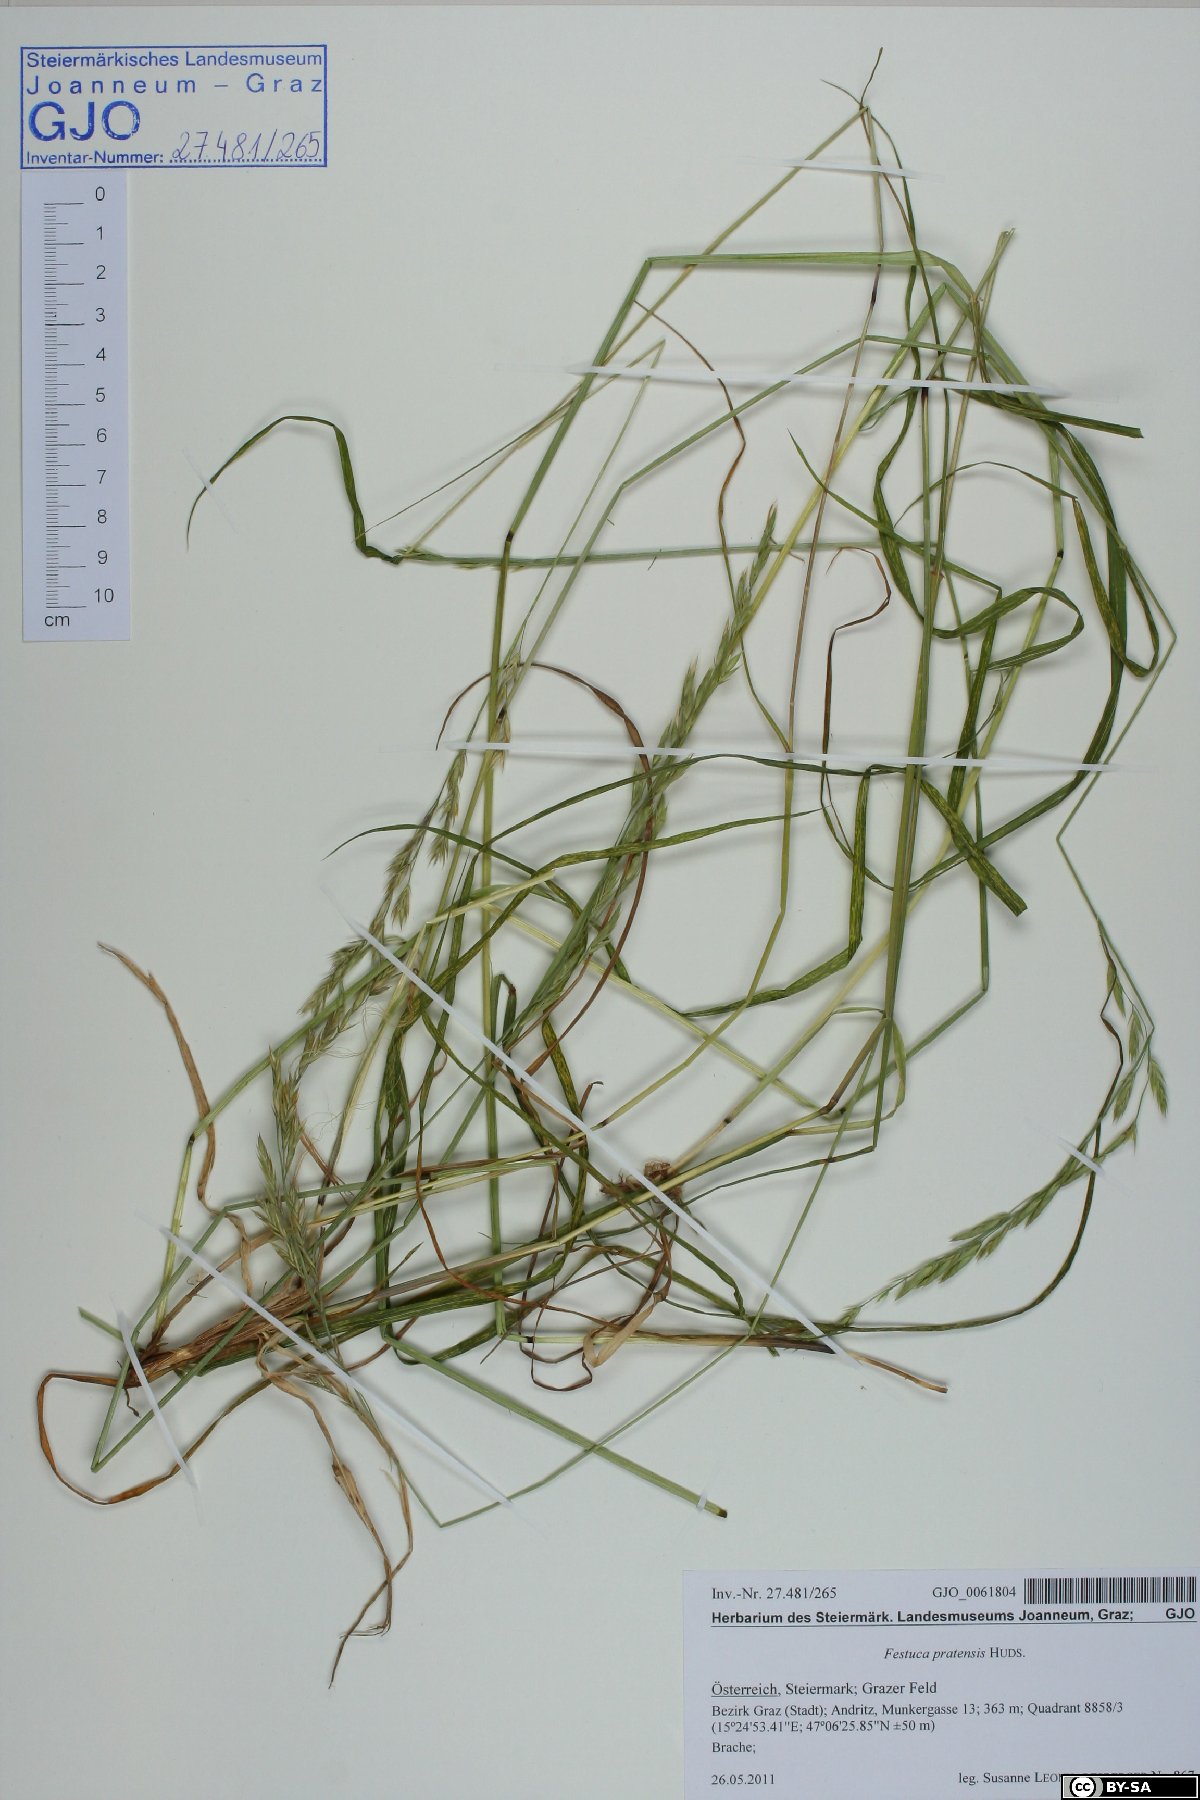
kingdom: Plantae
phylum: Tracheophyta
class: Liliopsida
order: Poales
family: Poaceae
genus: Lolium
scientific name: Lolium pratense
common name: Dover grass
